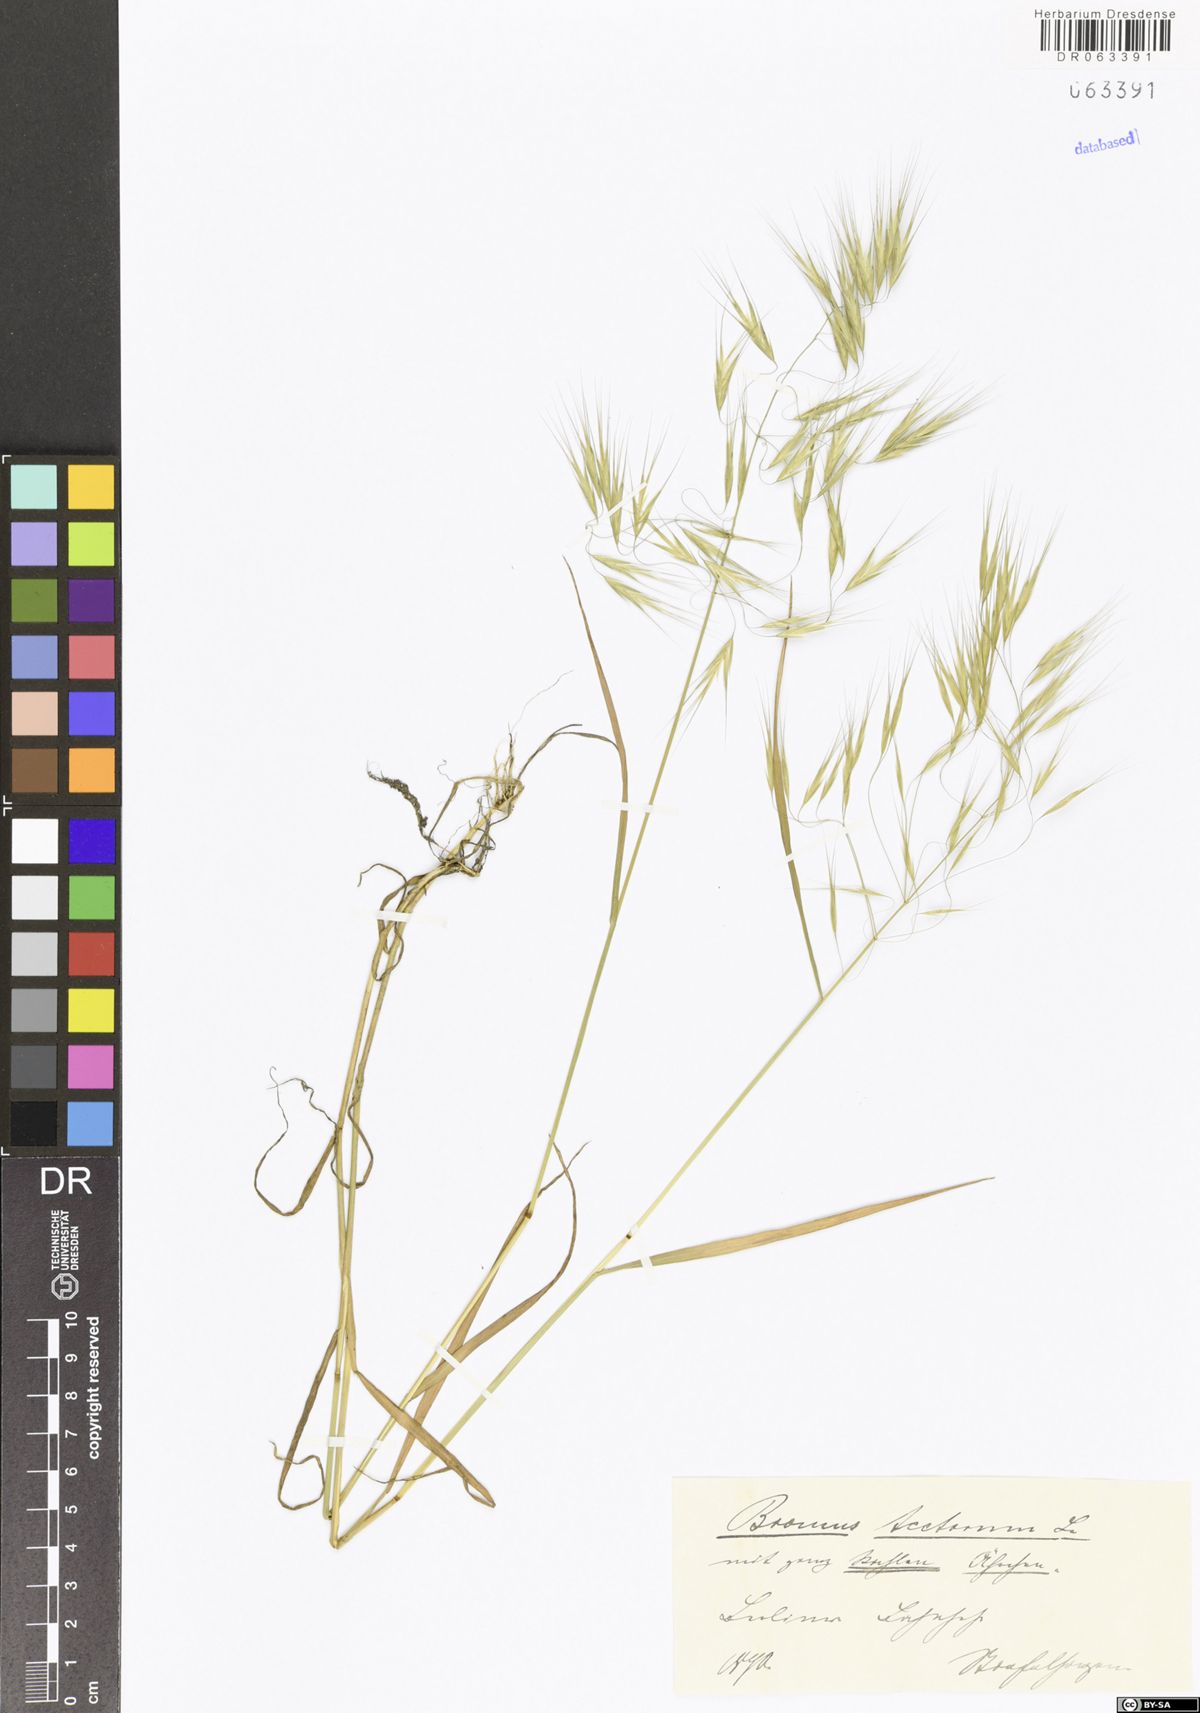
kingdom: Plantae
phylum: Tracheophyta
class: Liliopsida
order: Poales
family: Poaceae
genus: Bromus
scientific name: Bromus tectorum
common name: Cheatgrass
